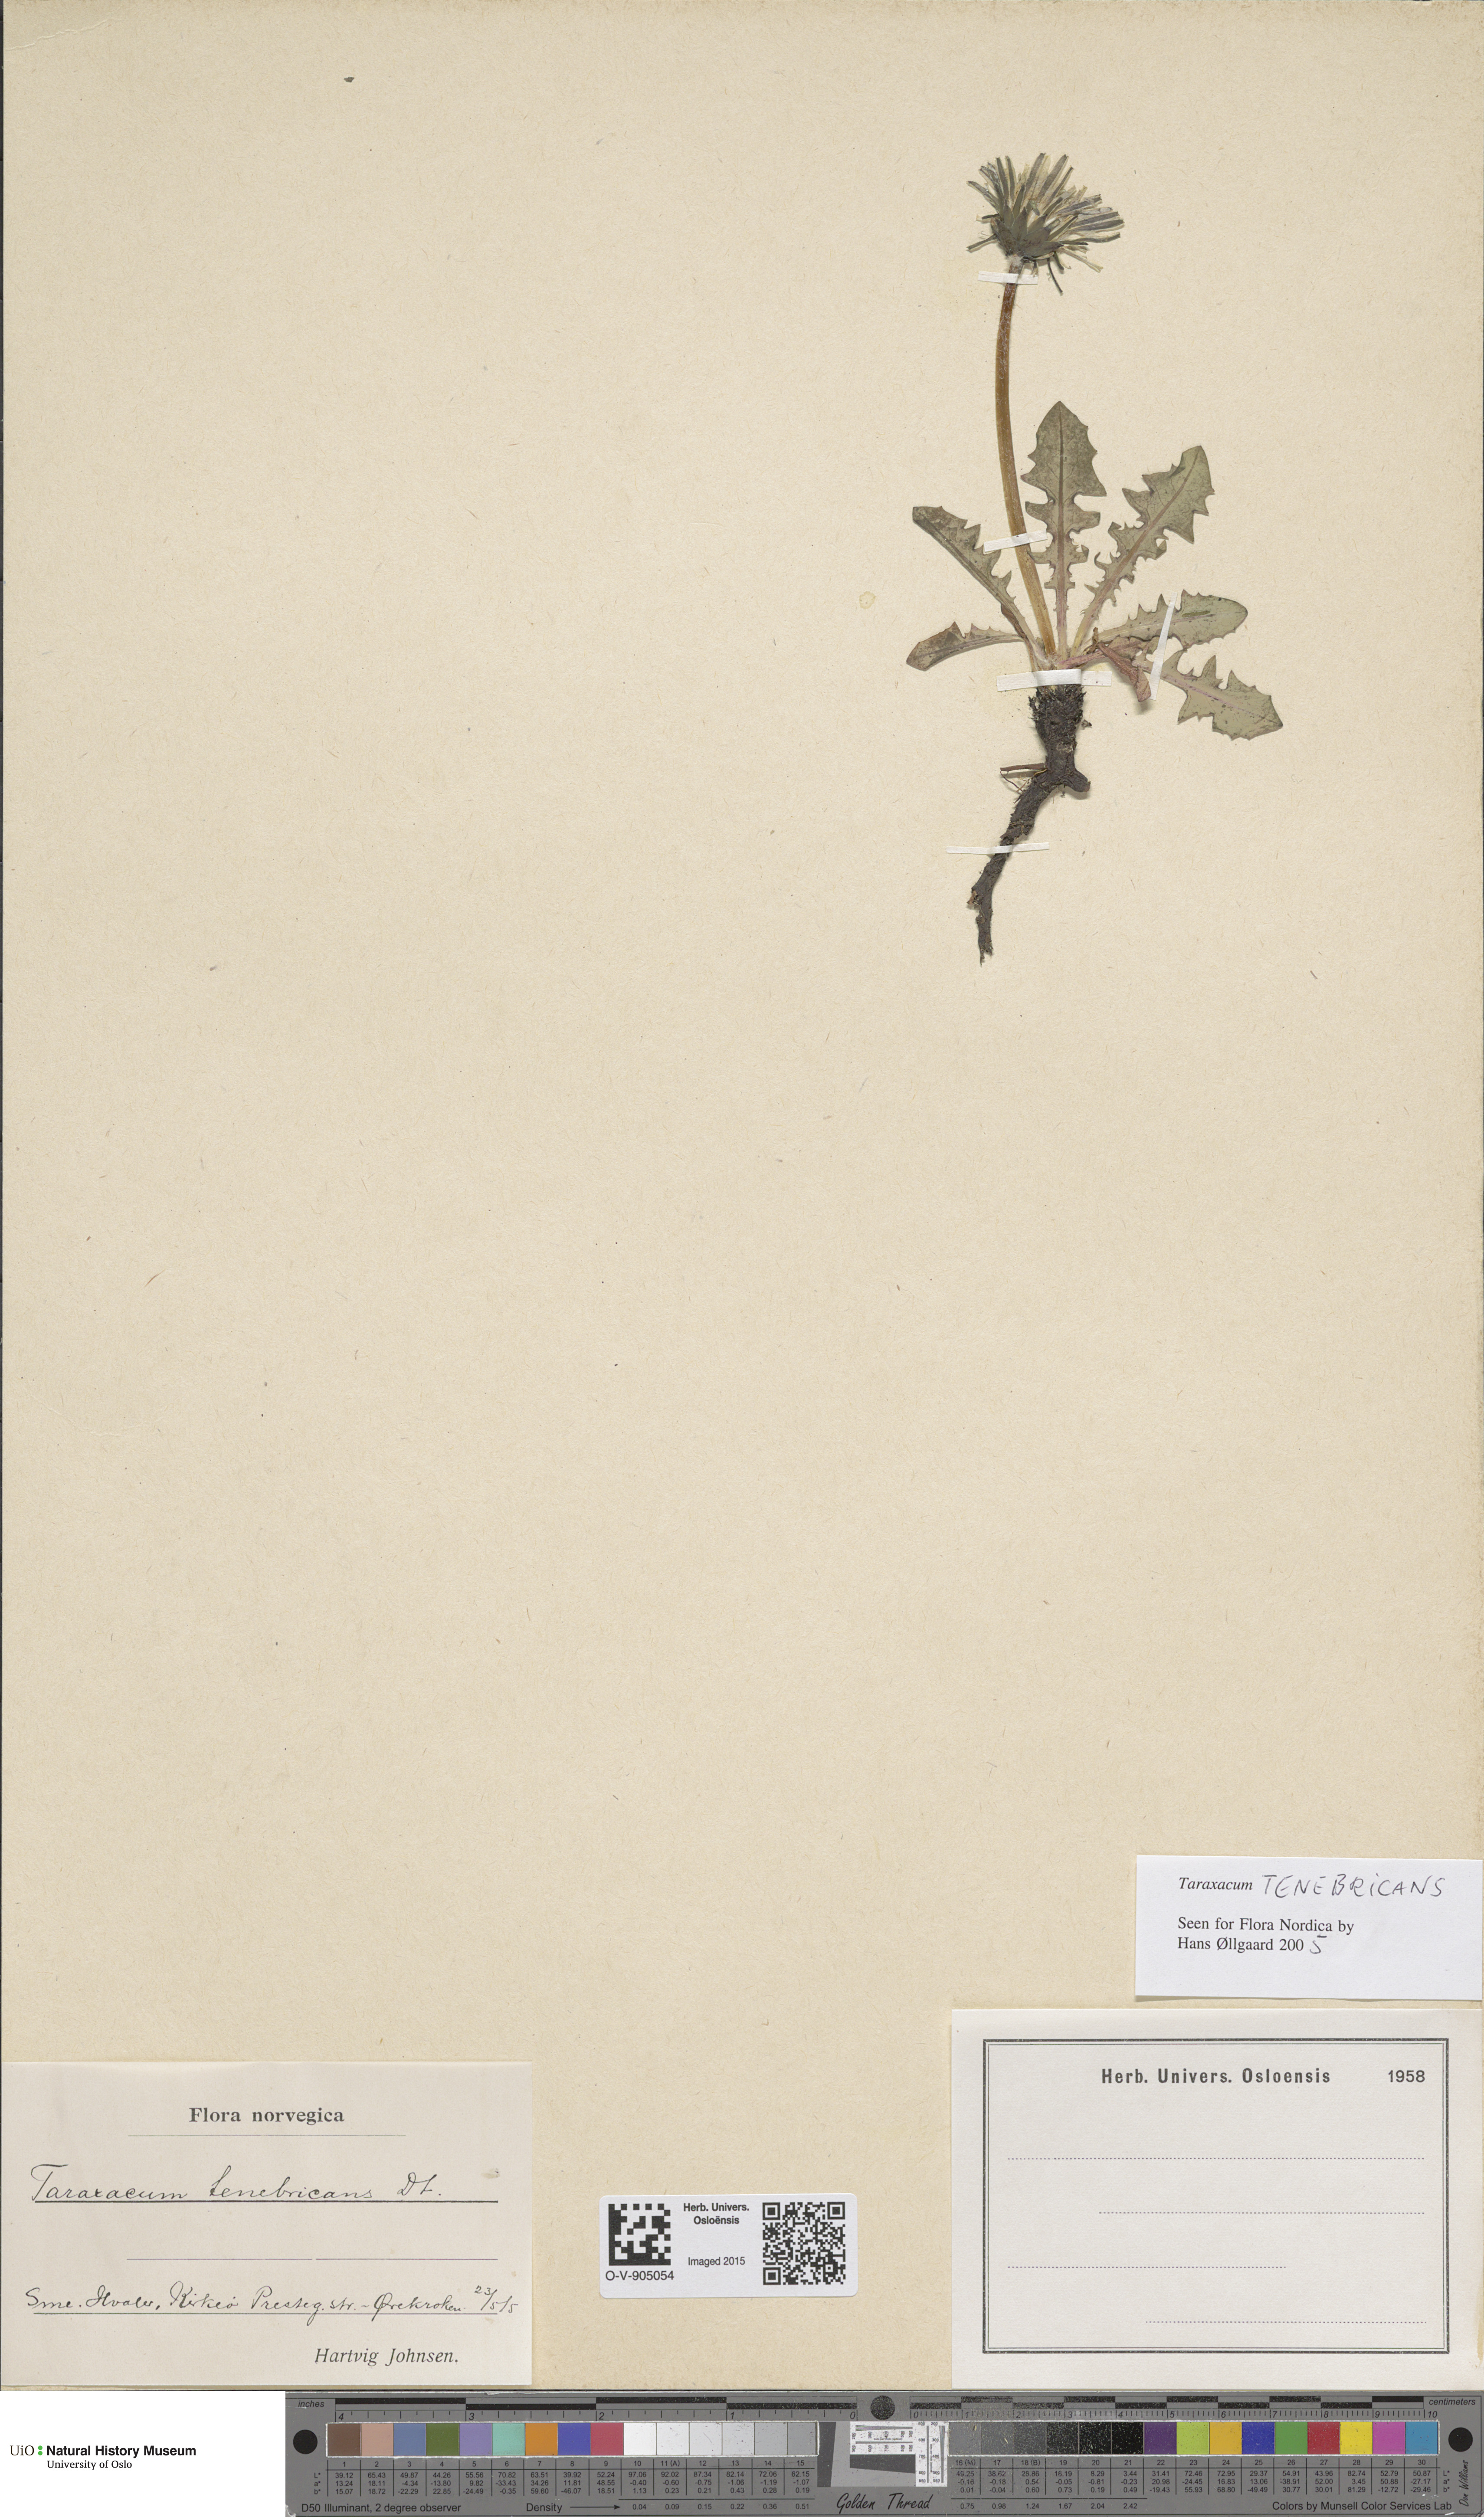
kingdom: Plantae
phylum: Tracheophyta
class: Magnoliopsida
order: Asterales
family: Asteraceae
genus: Taraxacum
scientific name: Taraxacum tenebricans
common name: Shiny-leaved dandelion
